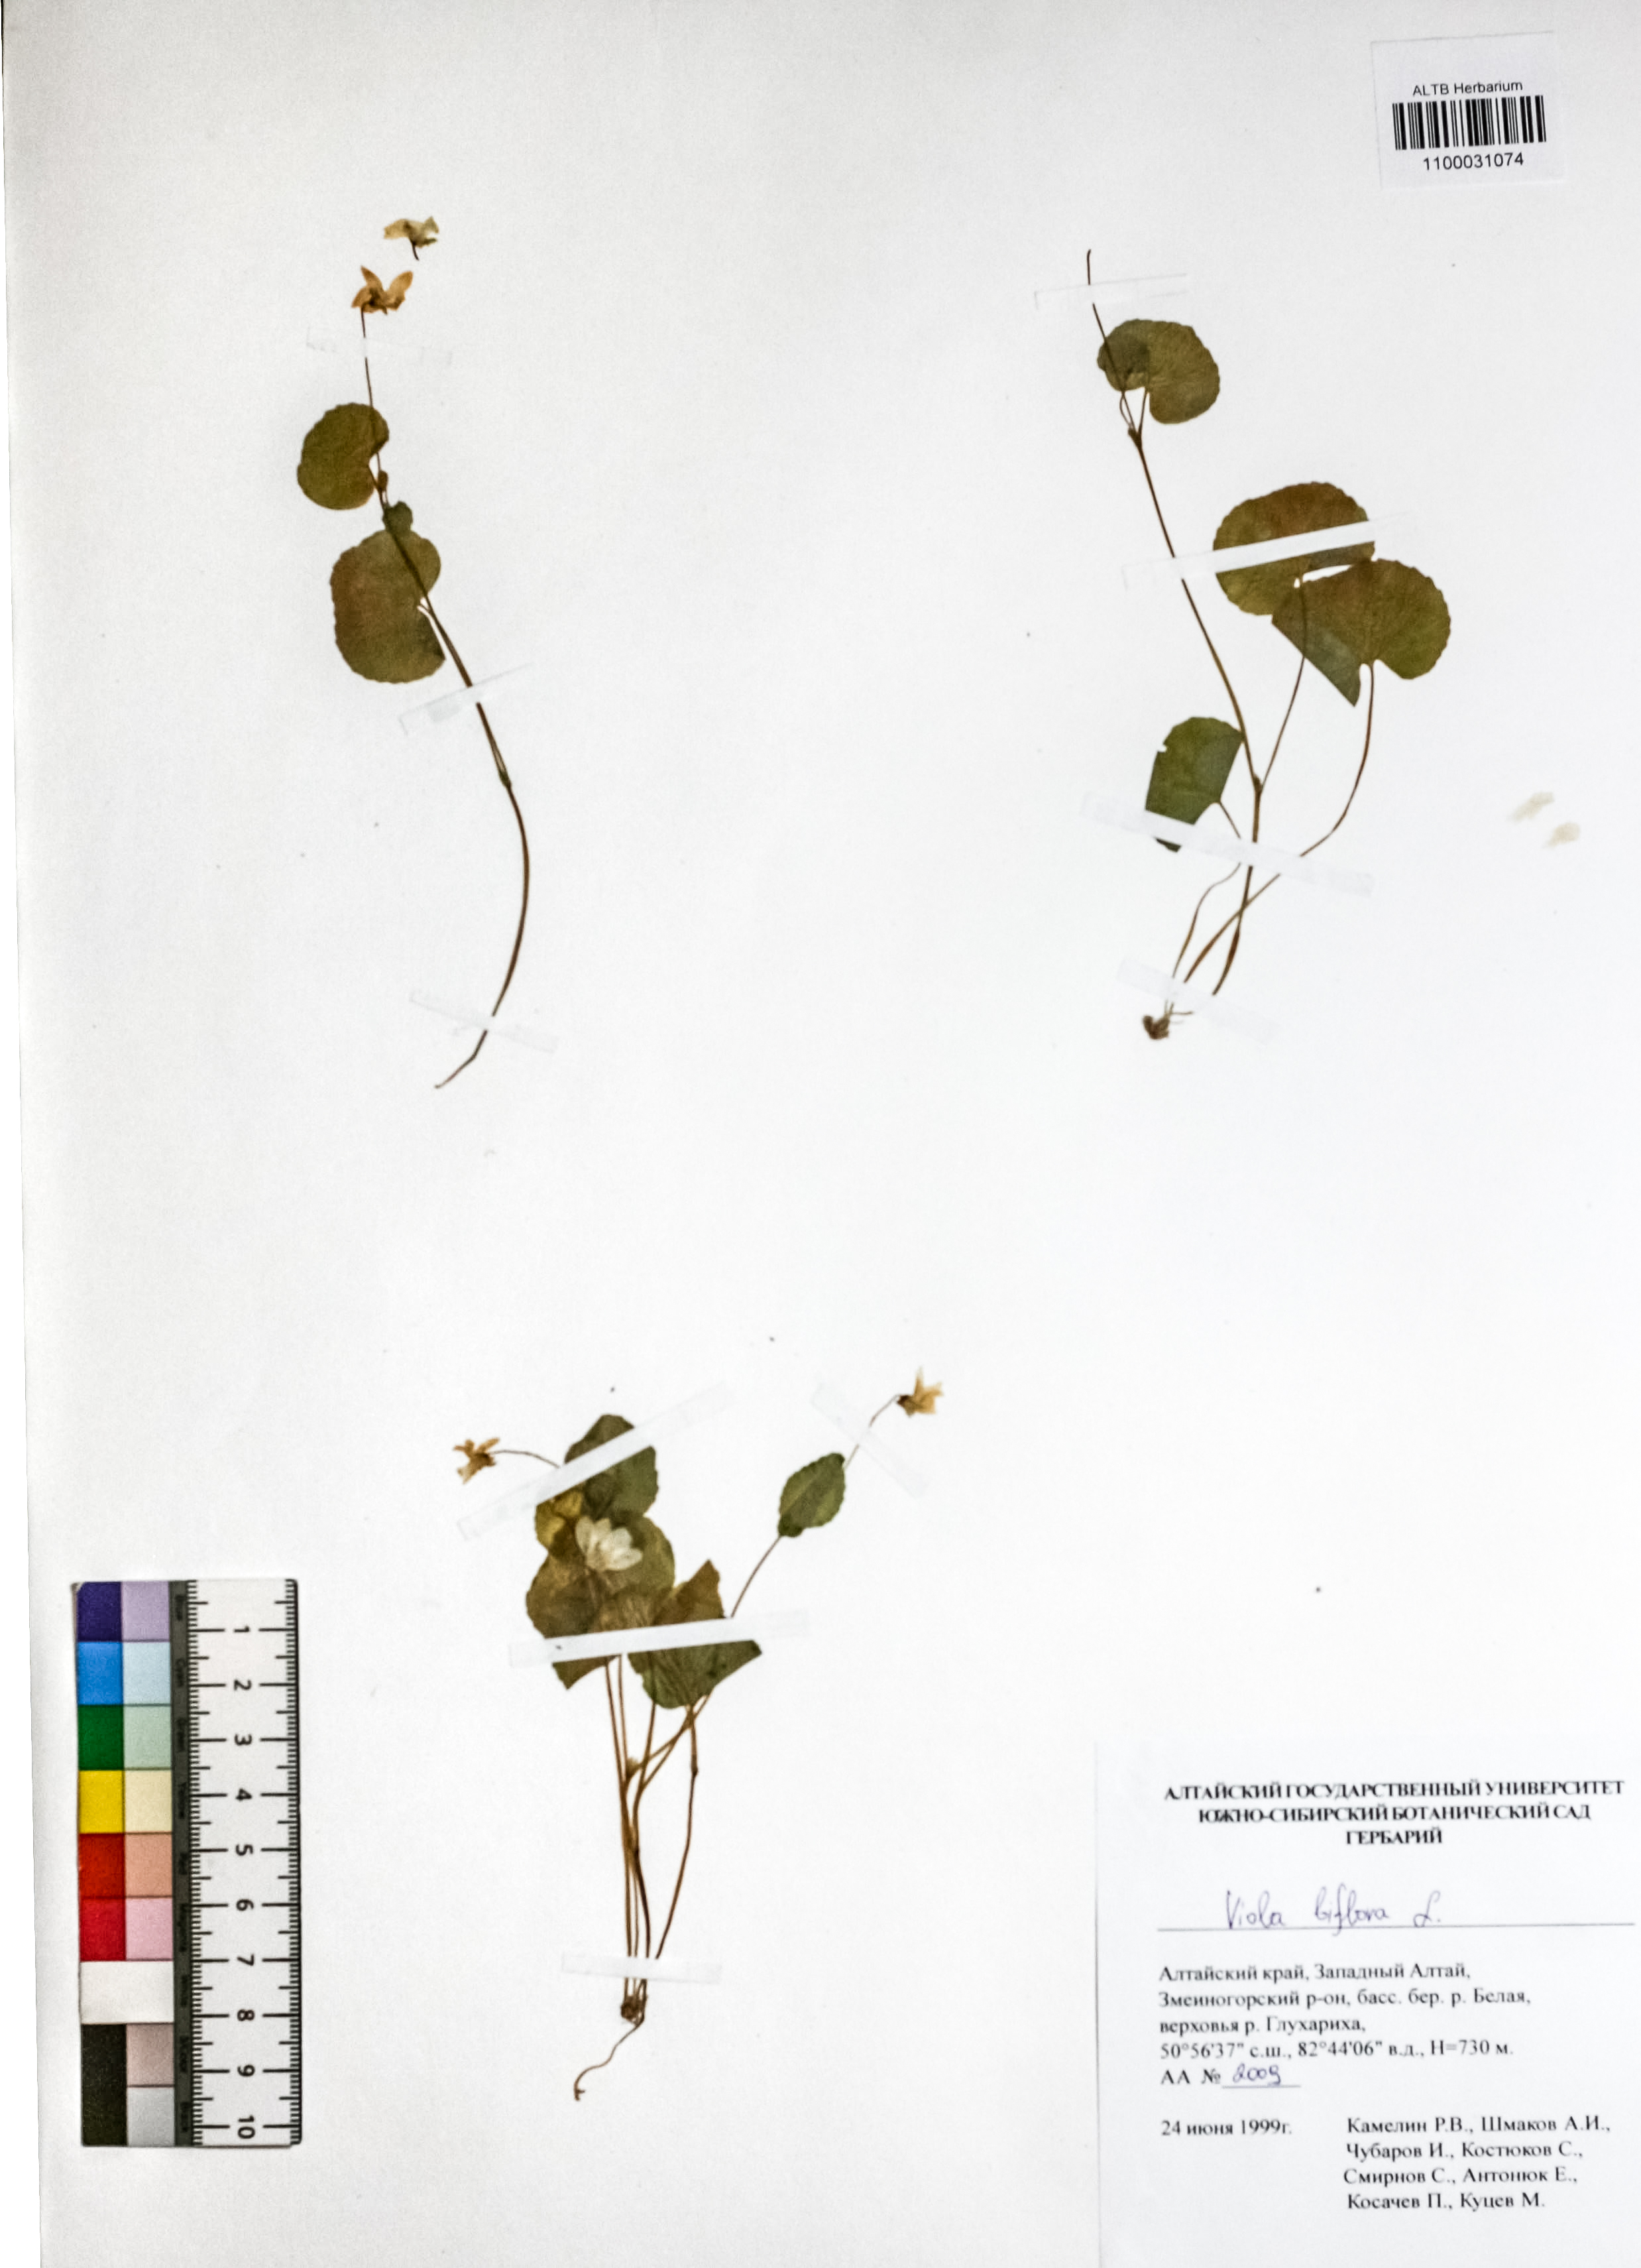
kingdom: Plantae
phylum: Tracheophyta
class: Magnoliopsida
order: Malpighiales
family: Violaceae
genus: Viola
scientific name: Viola biflora
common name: Alpine yellow violet
